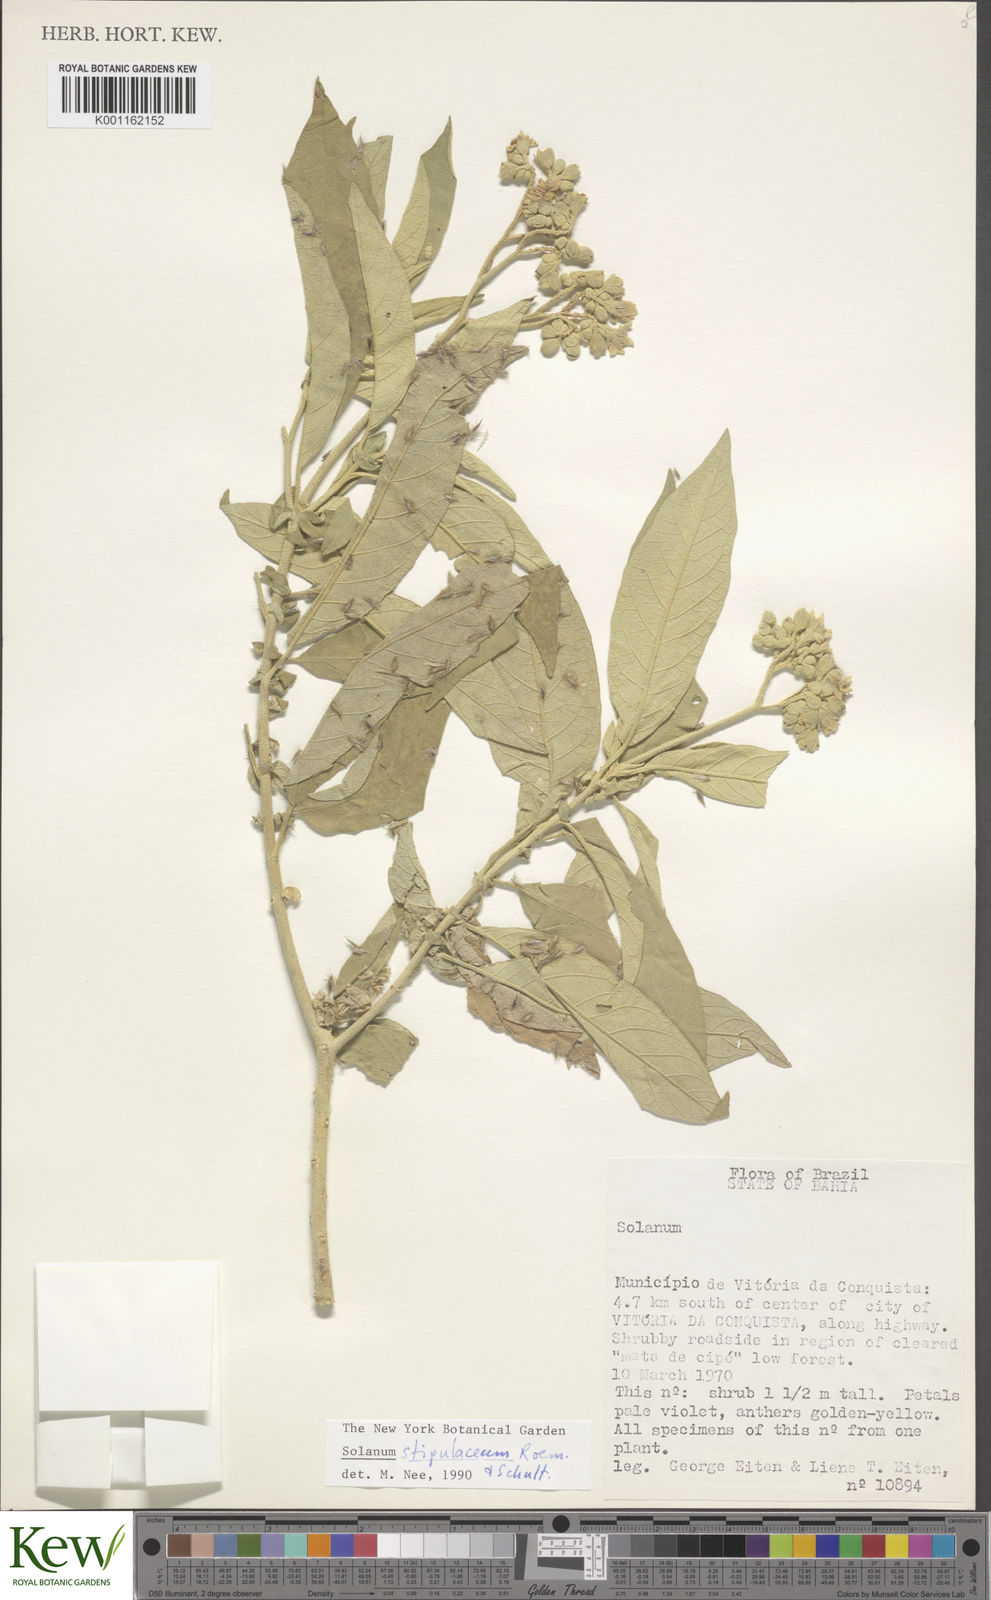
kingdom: Plantae
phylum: Tracheophyta
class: Magnoliopsida
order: Solanales
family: Solanaceae
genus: Solanum
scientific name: Solanum stipulaceum
